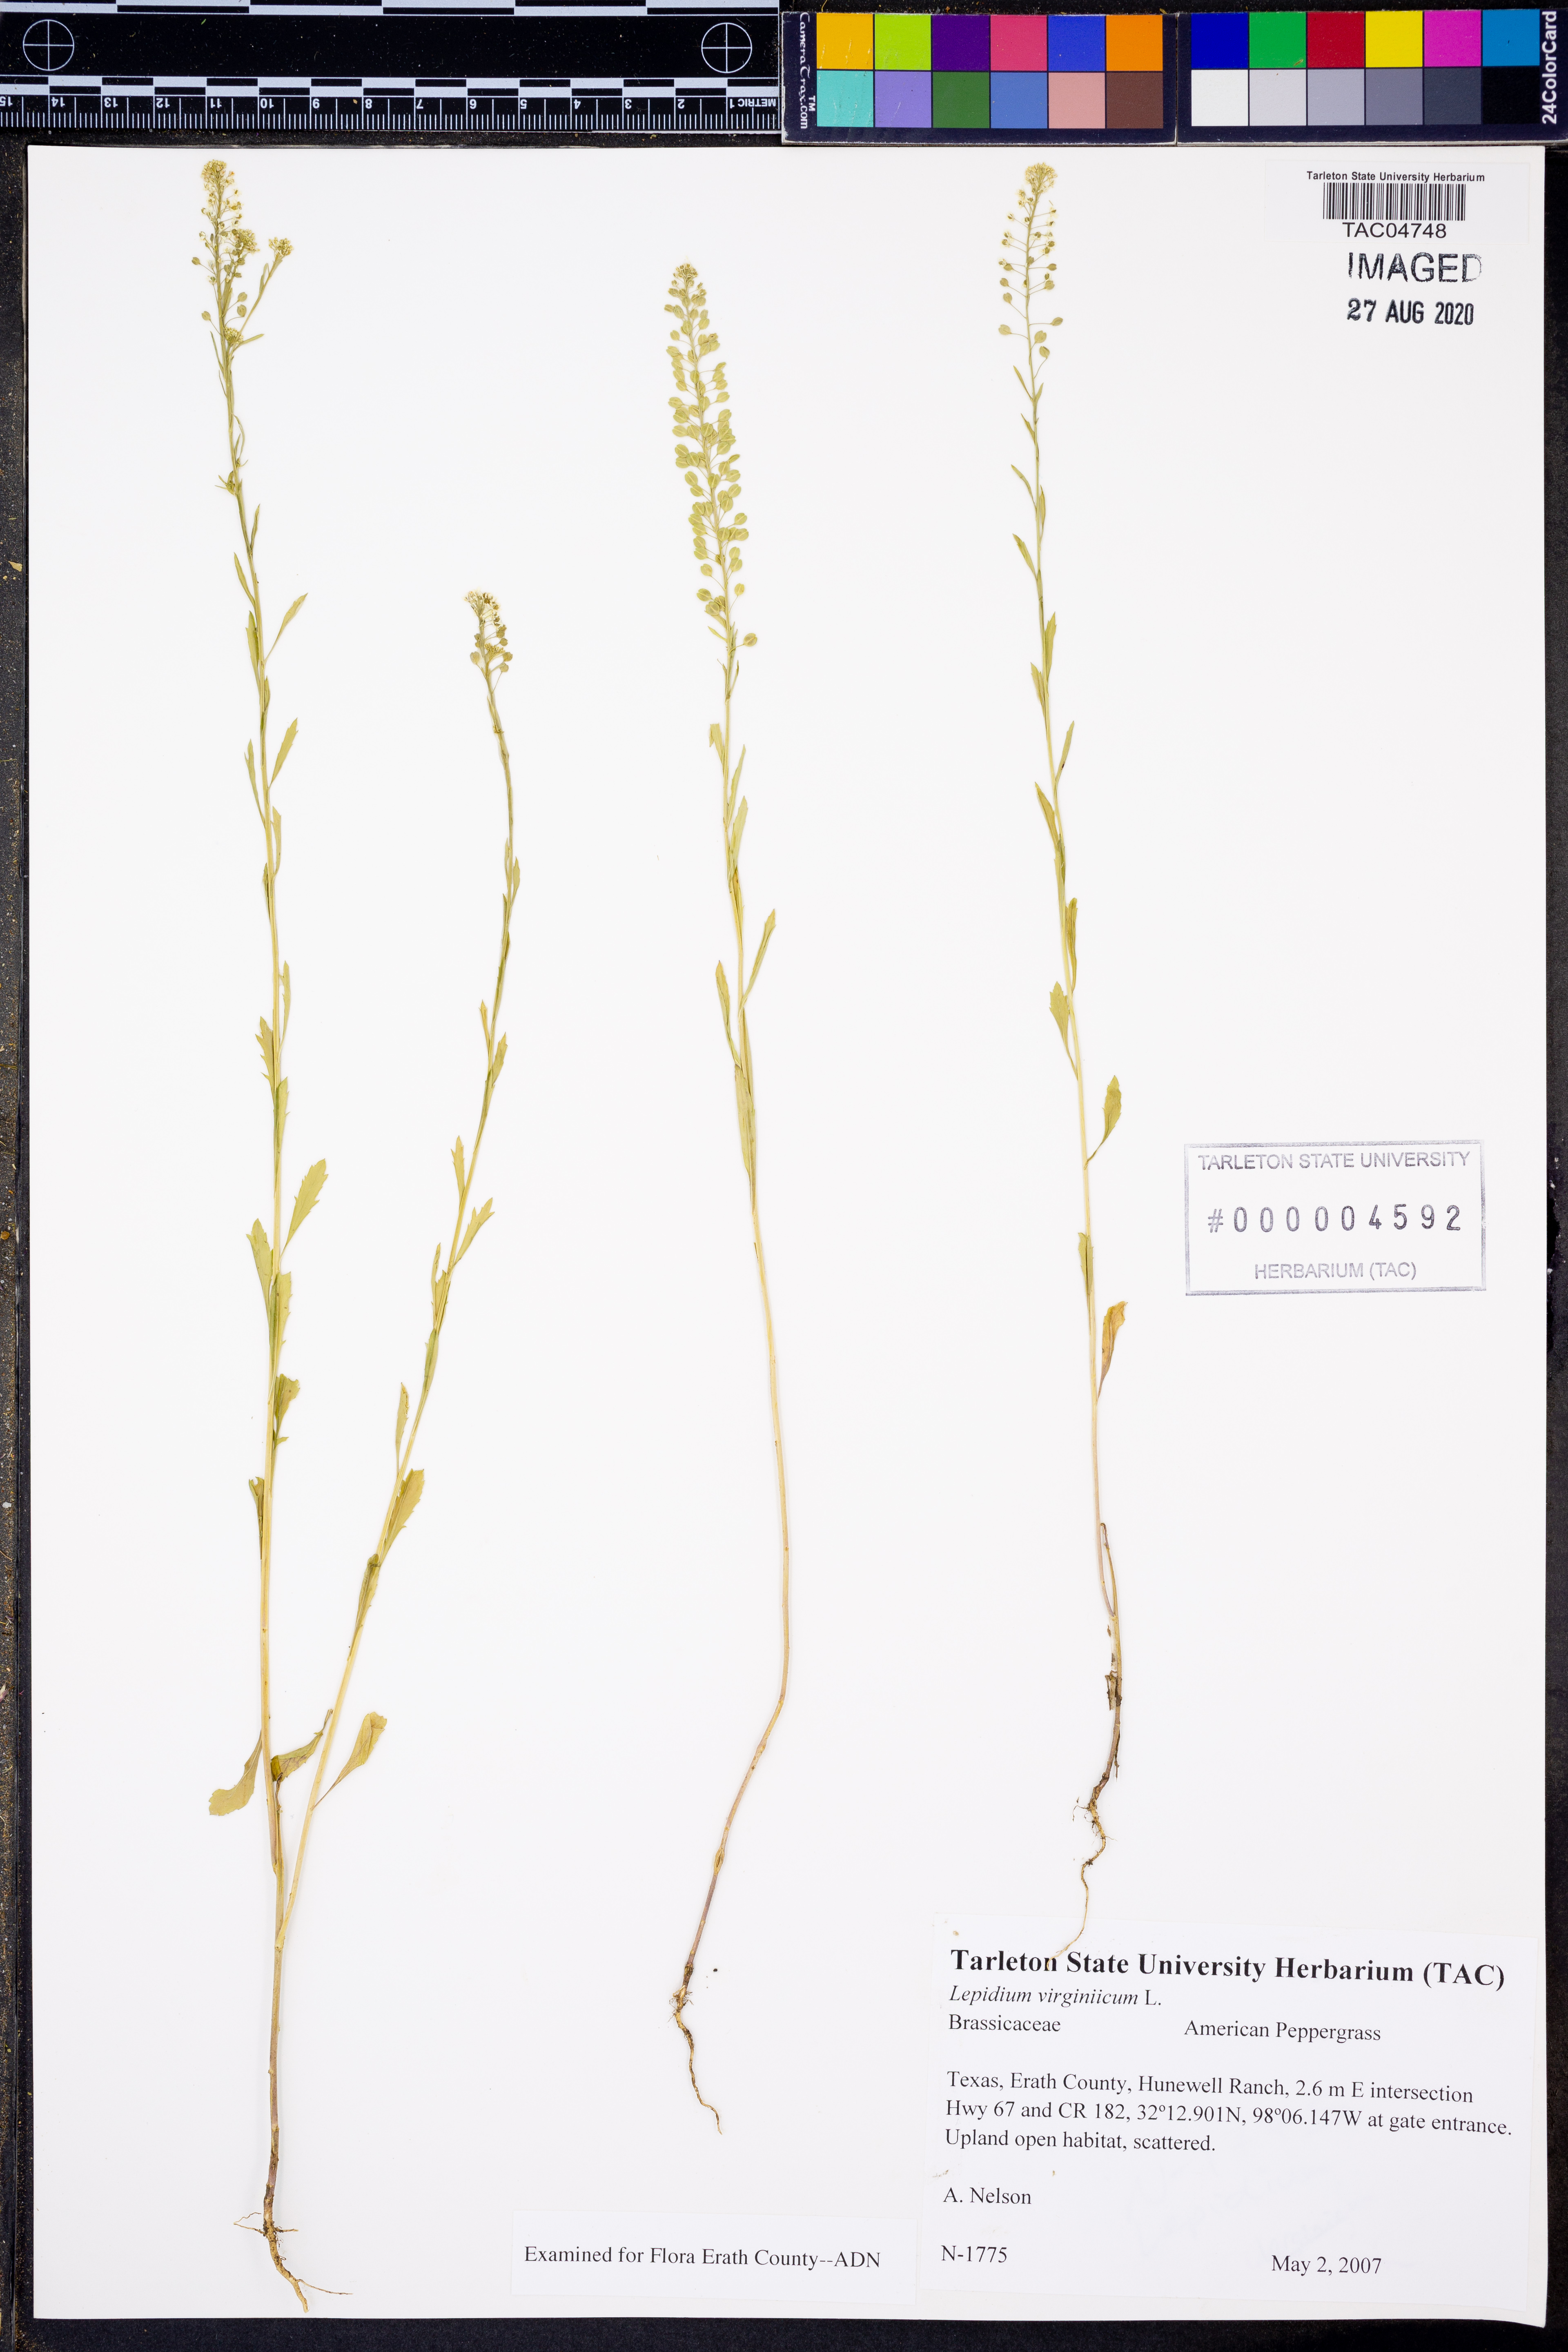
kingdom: Plantae
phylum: Tracheophyta
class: Magnoliopsida
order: Brassicales
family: Brassicaceae
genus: Lepidium
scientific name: Lepidium virginicum
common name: Least pepperwort
